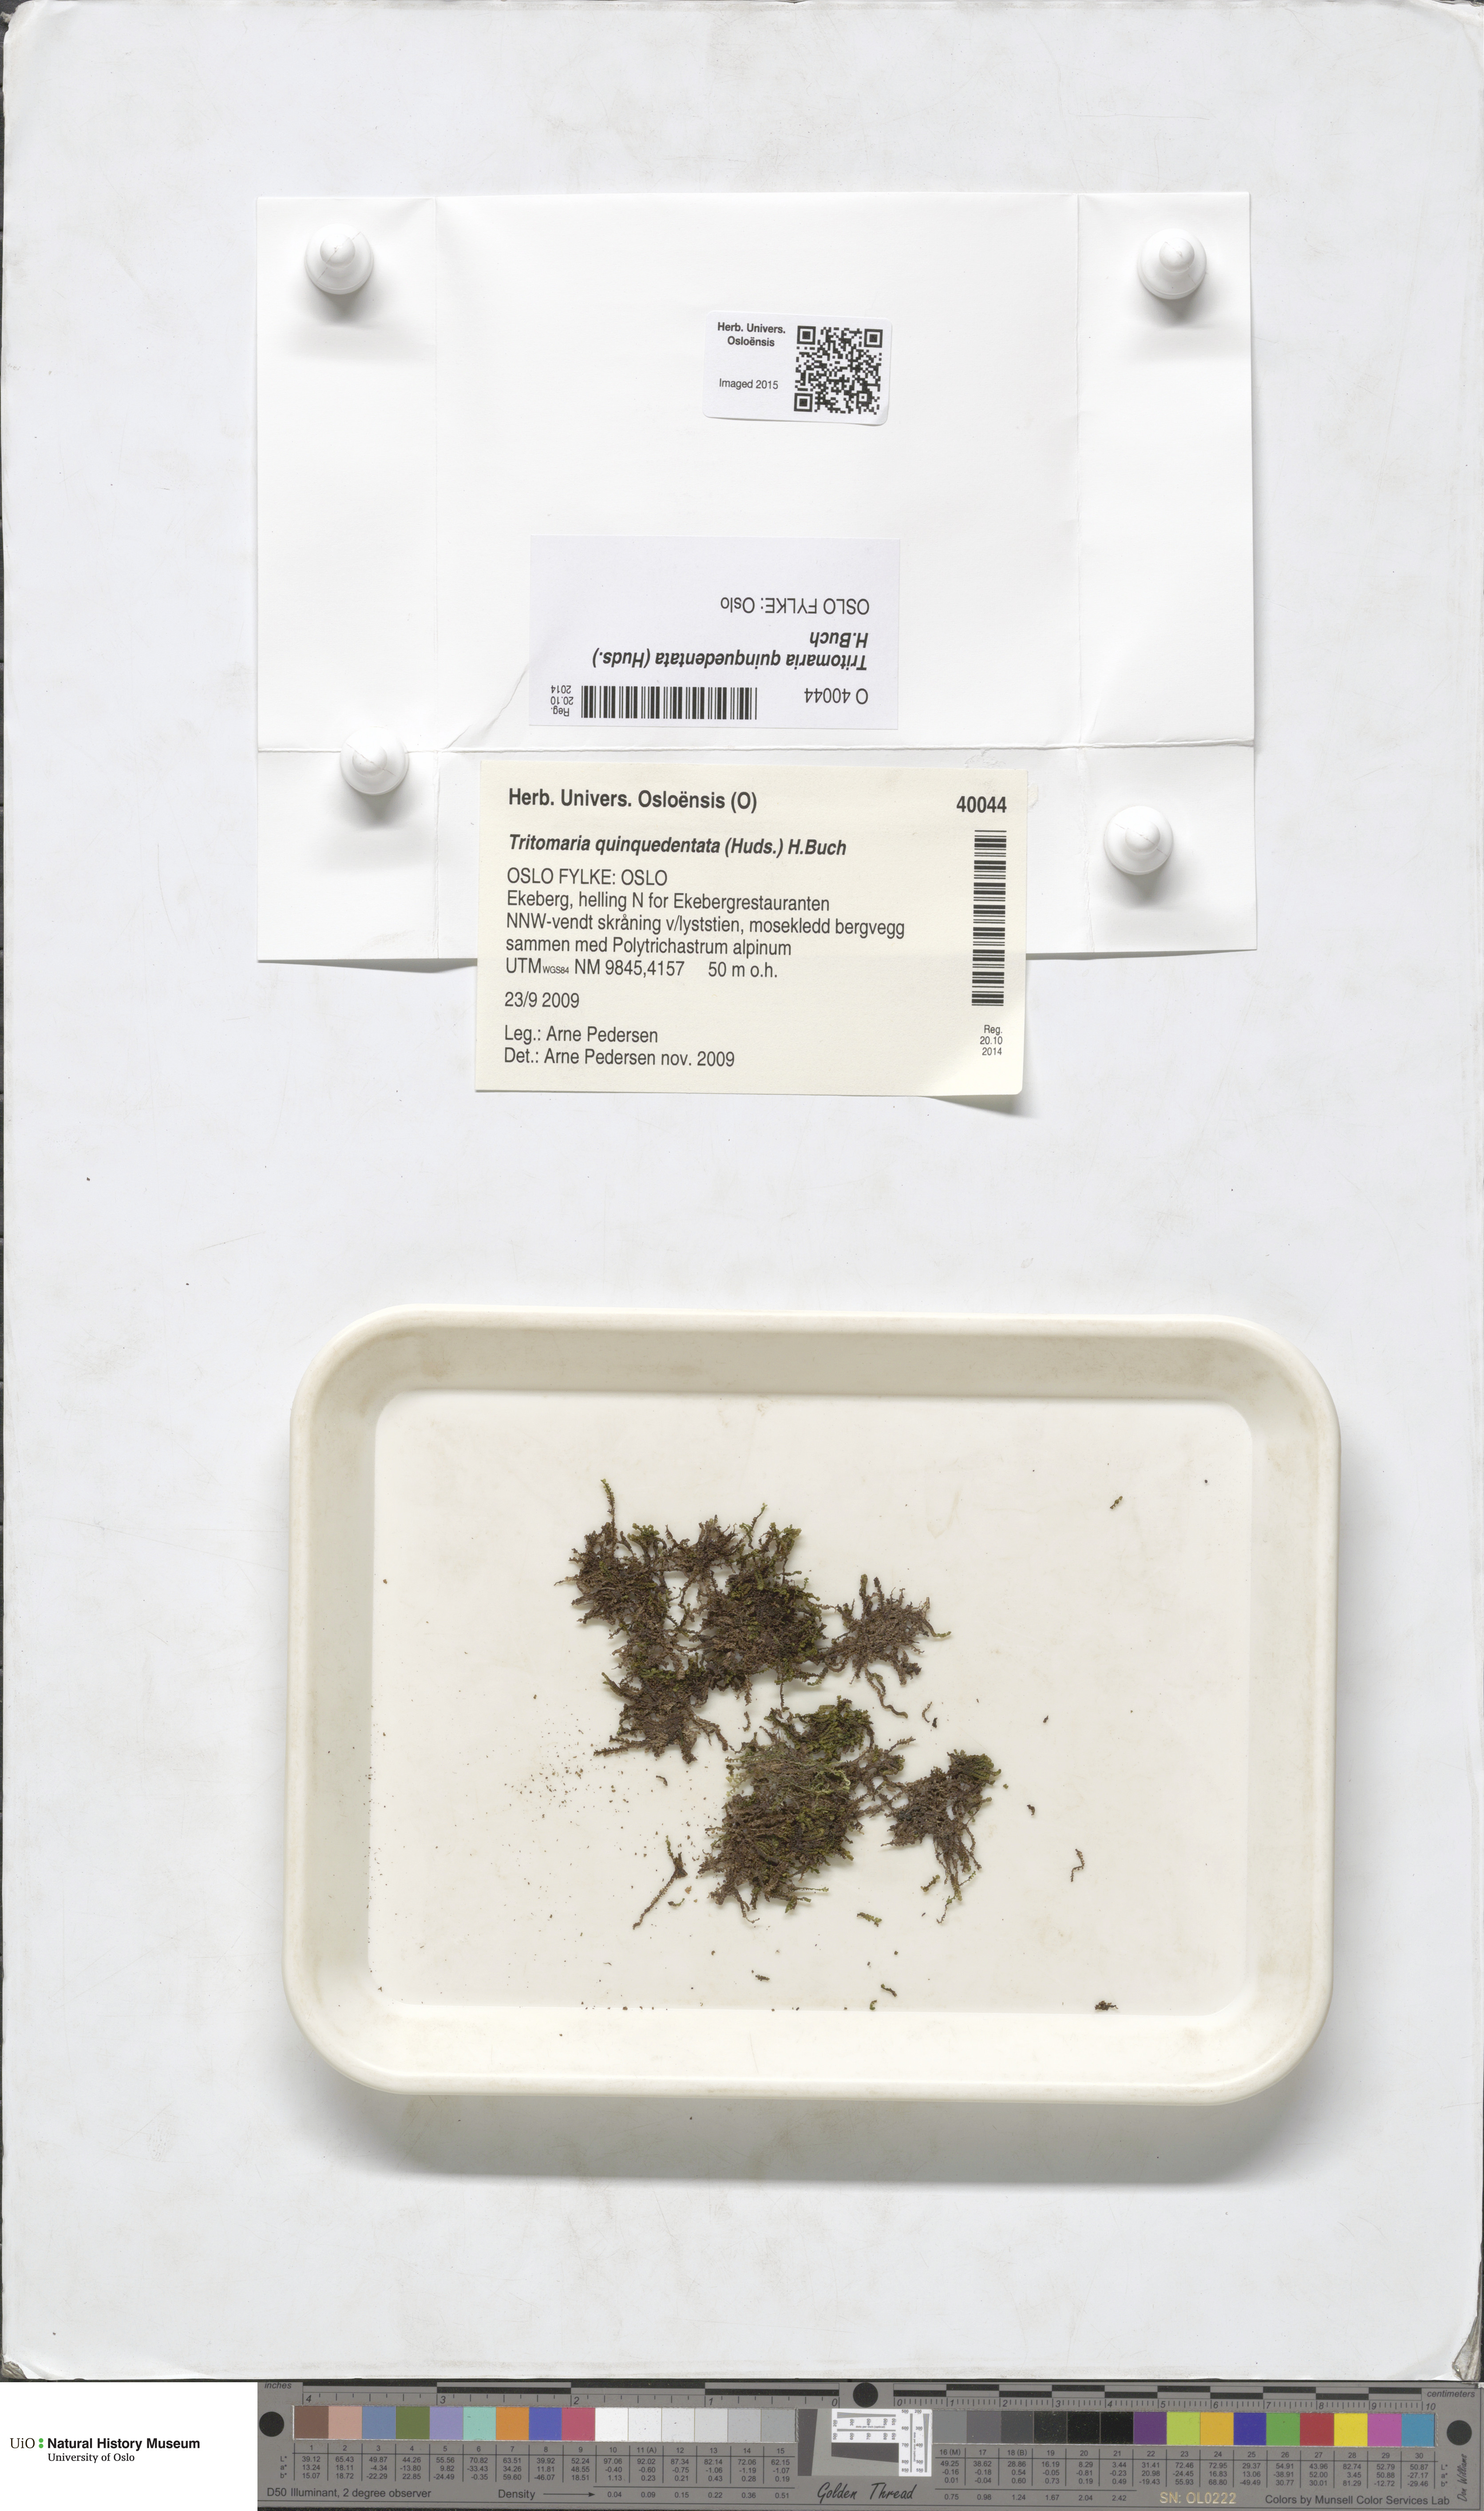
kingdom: Plantae
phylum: Marchantiophyta
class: Jungermanniopsida
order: Jungermanniales
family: Lophoziaceae
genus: Trilophozia
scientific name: Trilophozia quinquedentata
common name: Large notchwort
